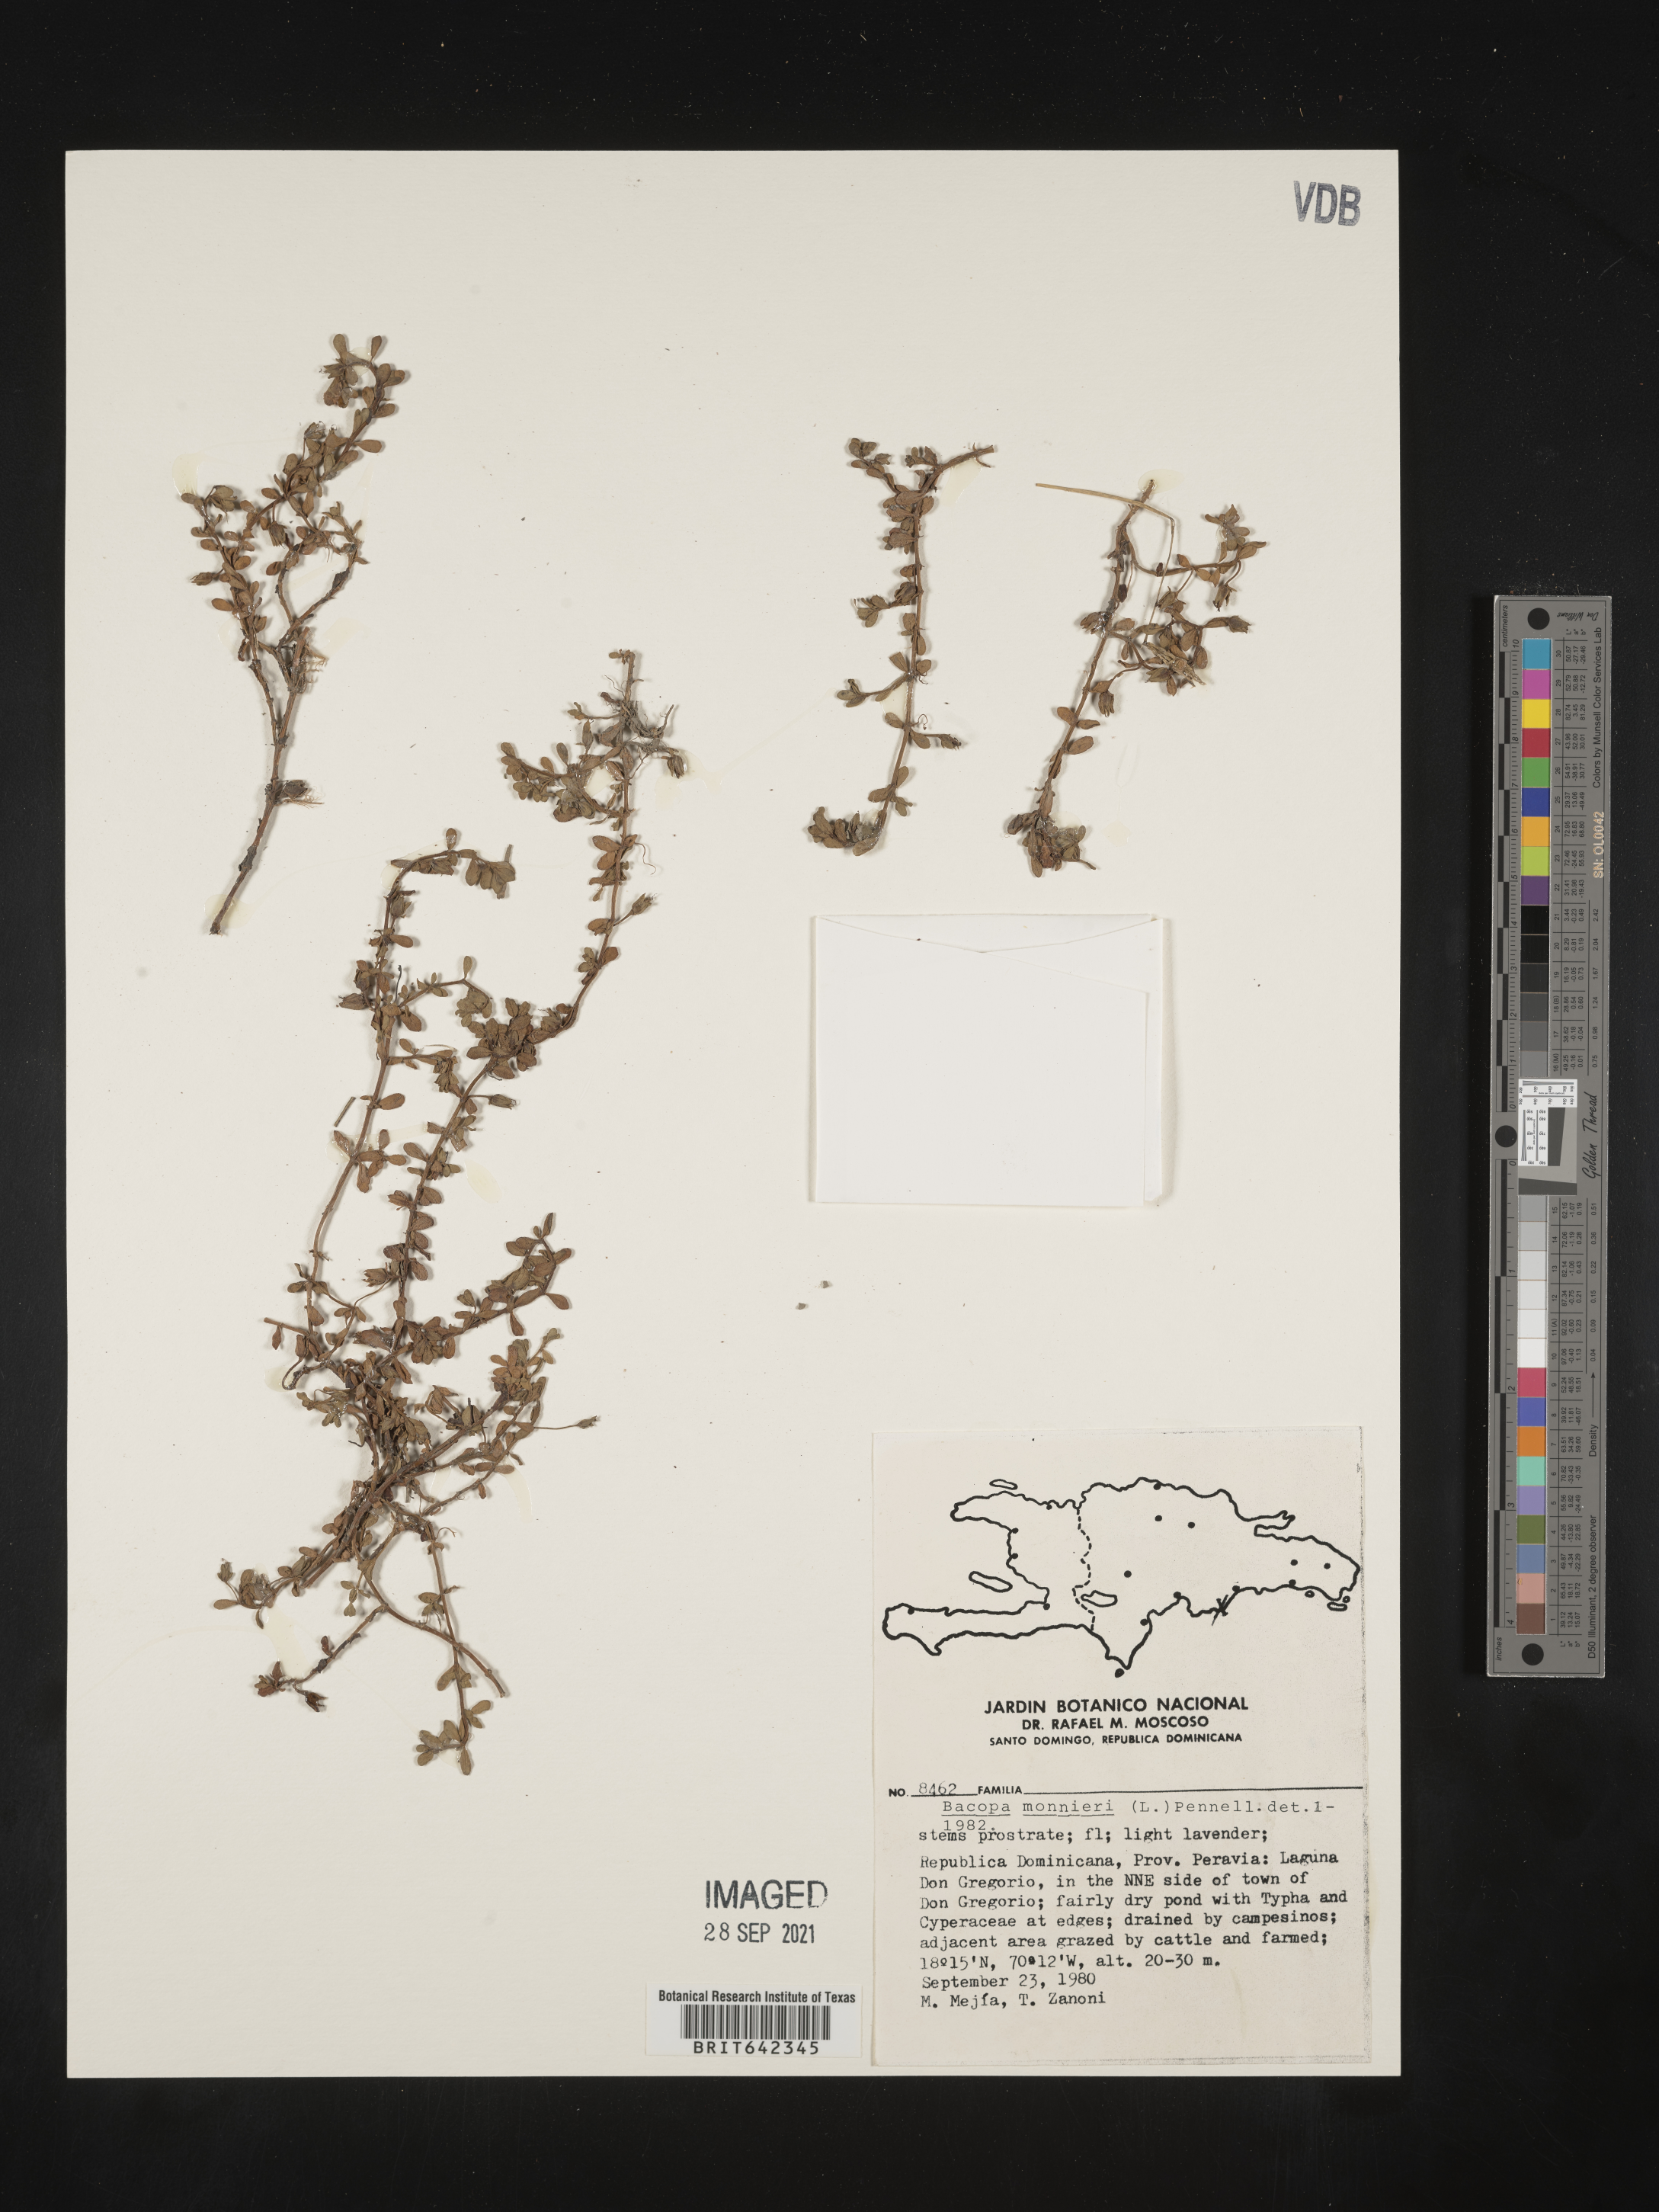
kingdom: Plantae
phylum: Tracheophyta
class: Magnoliopsida
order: Lamiales
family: Plantaginaceae
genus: Bacopa
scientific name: Bacopa
